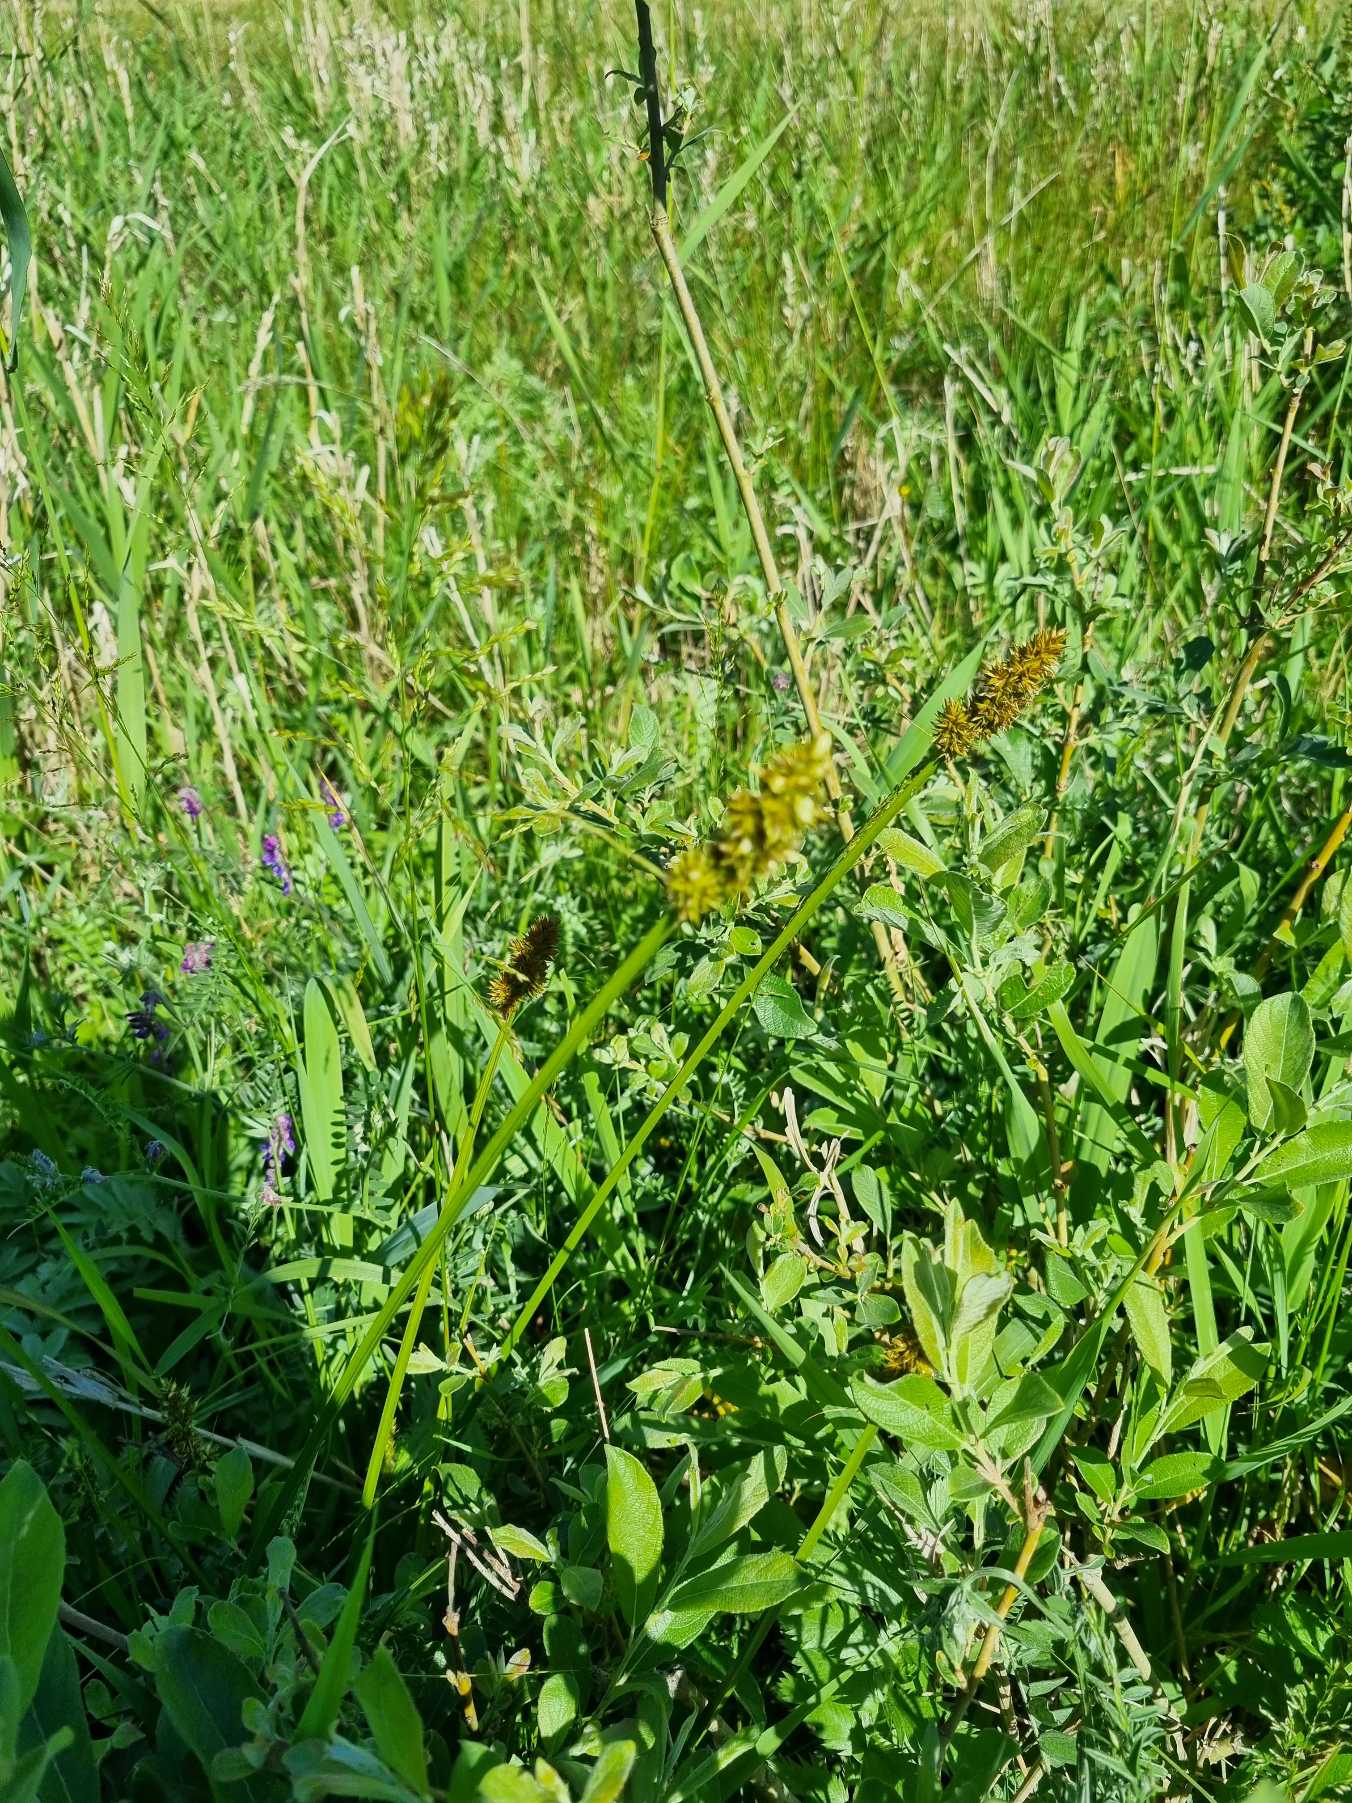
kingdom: Plantae
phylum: Tracheophyta
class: Liliopsida
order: Poales
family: Cyperaceae
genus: Carex
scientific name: Carex otrubae
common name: Sylt-star
